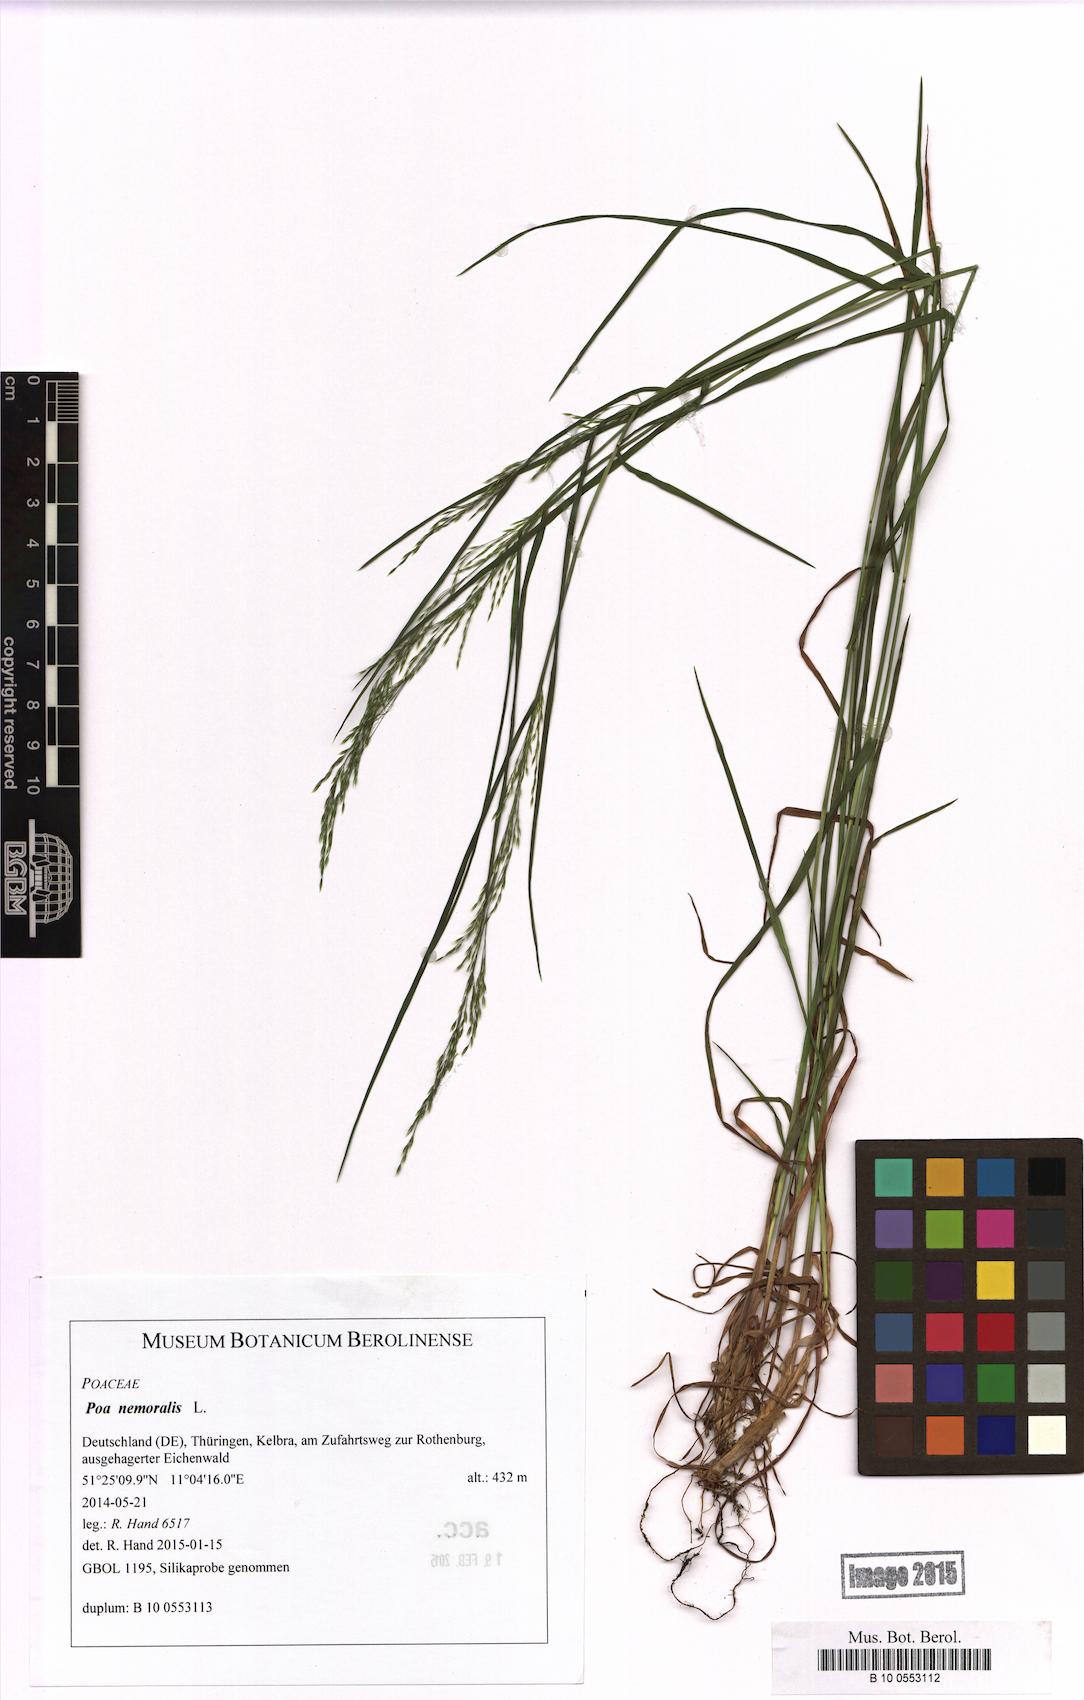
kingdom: Plantae
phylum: Tracheophyta
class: Liliopsida
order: Poales
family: Poaceae
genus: Poa
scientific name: Poa nemoralis
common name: Wood bluegrass
